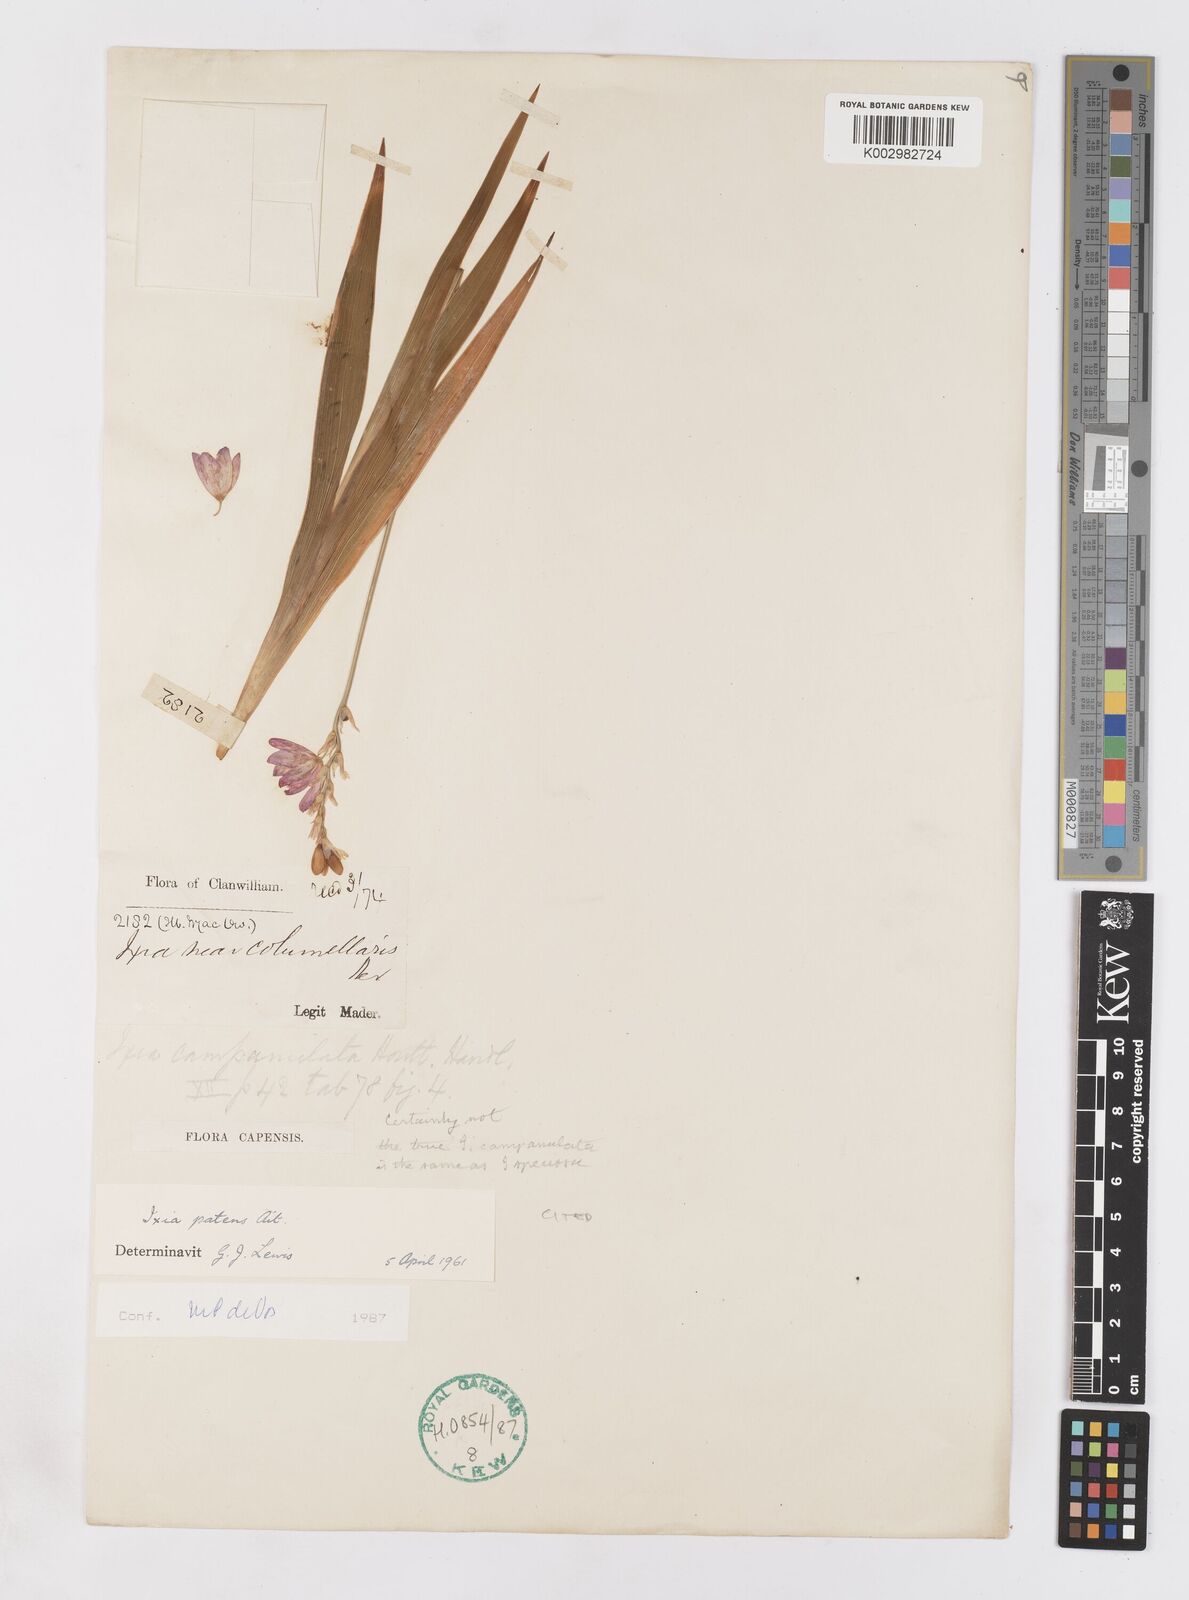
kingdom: Plantae
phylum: Tracheophyta
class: Liliopsida
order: Asparagales
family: Iridaceae
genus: Ixia
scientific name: Ixia patens
